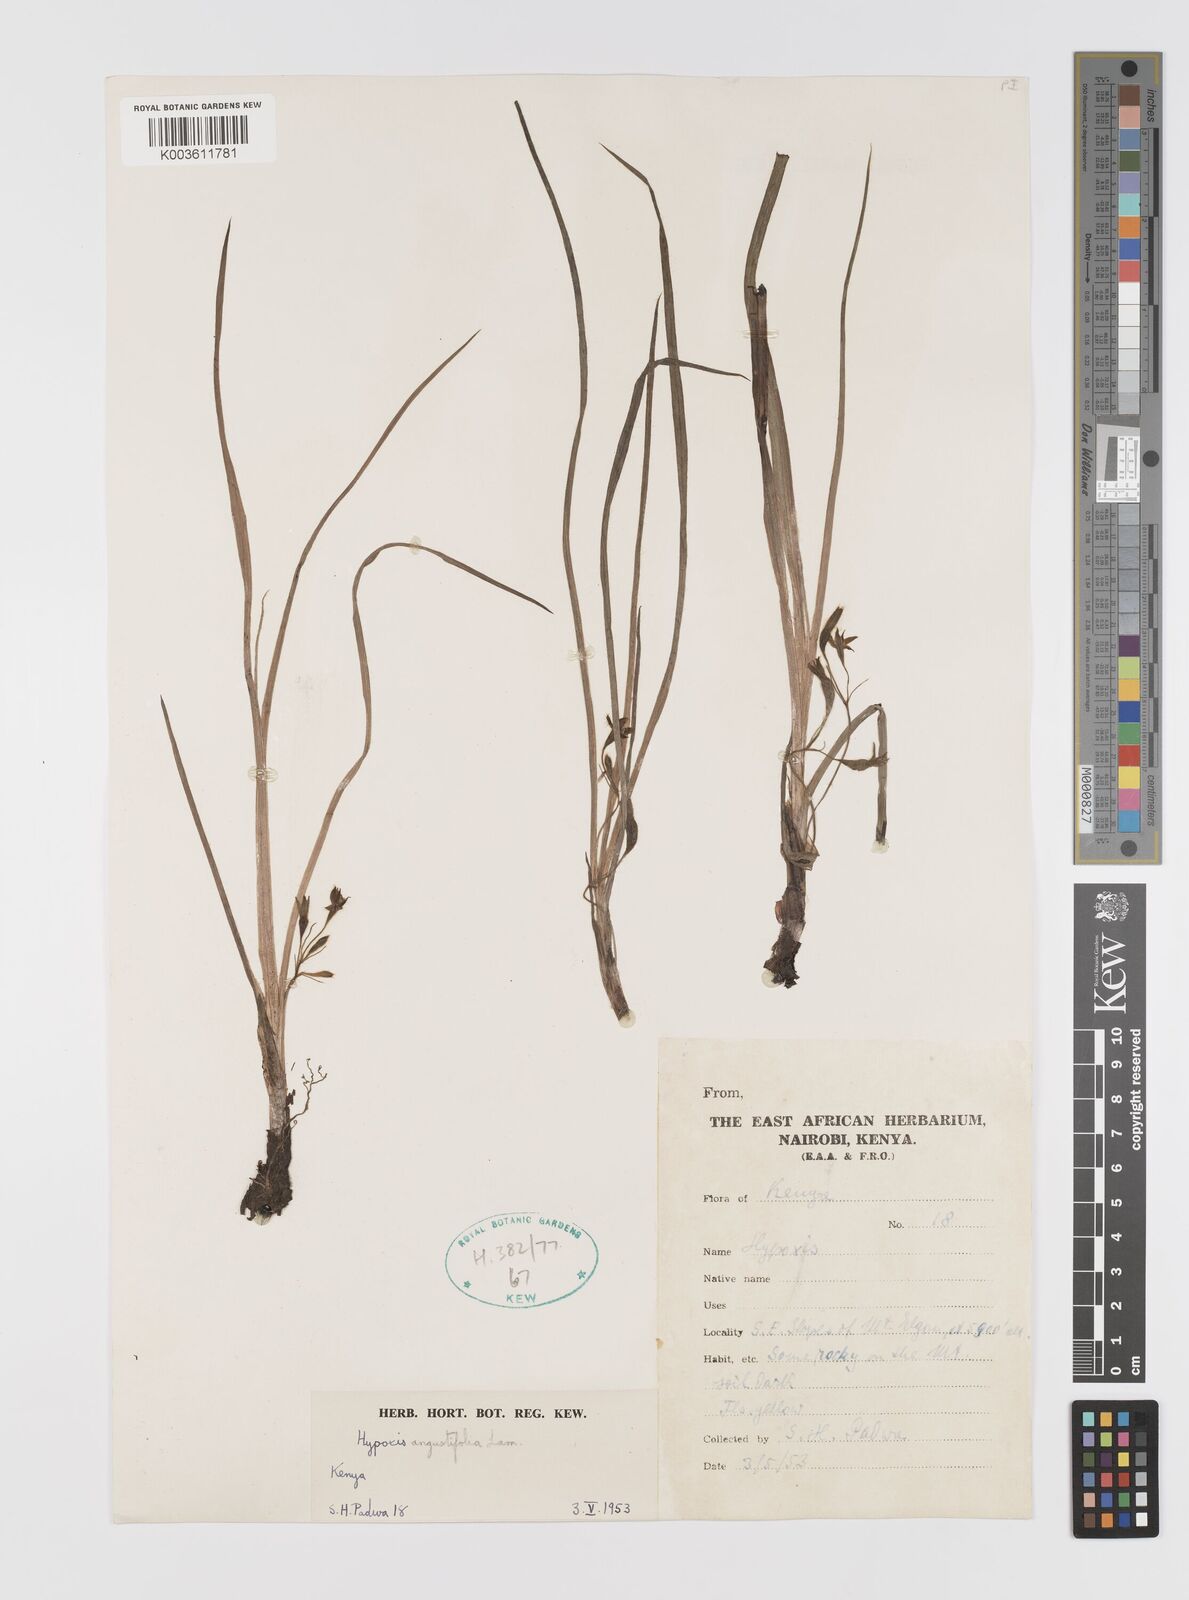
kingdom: Plantae
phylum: Tracheophyta
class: Liliopsida
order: Asparagales
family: Hypoxidaceae
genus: Hypoxis
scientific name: Hypoxis angustifolia
